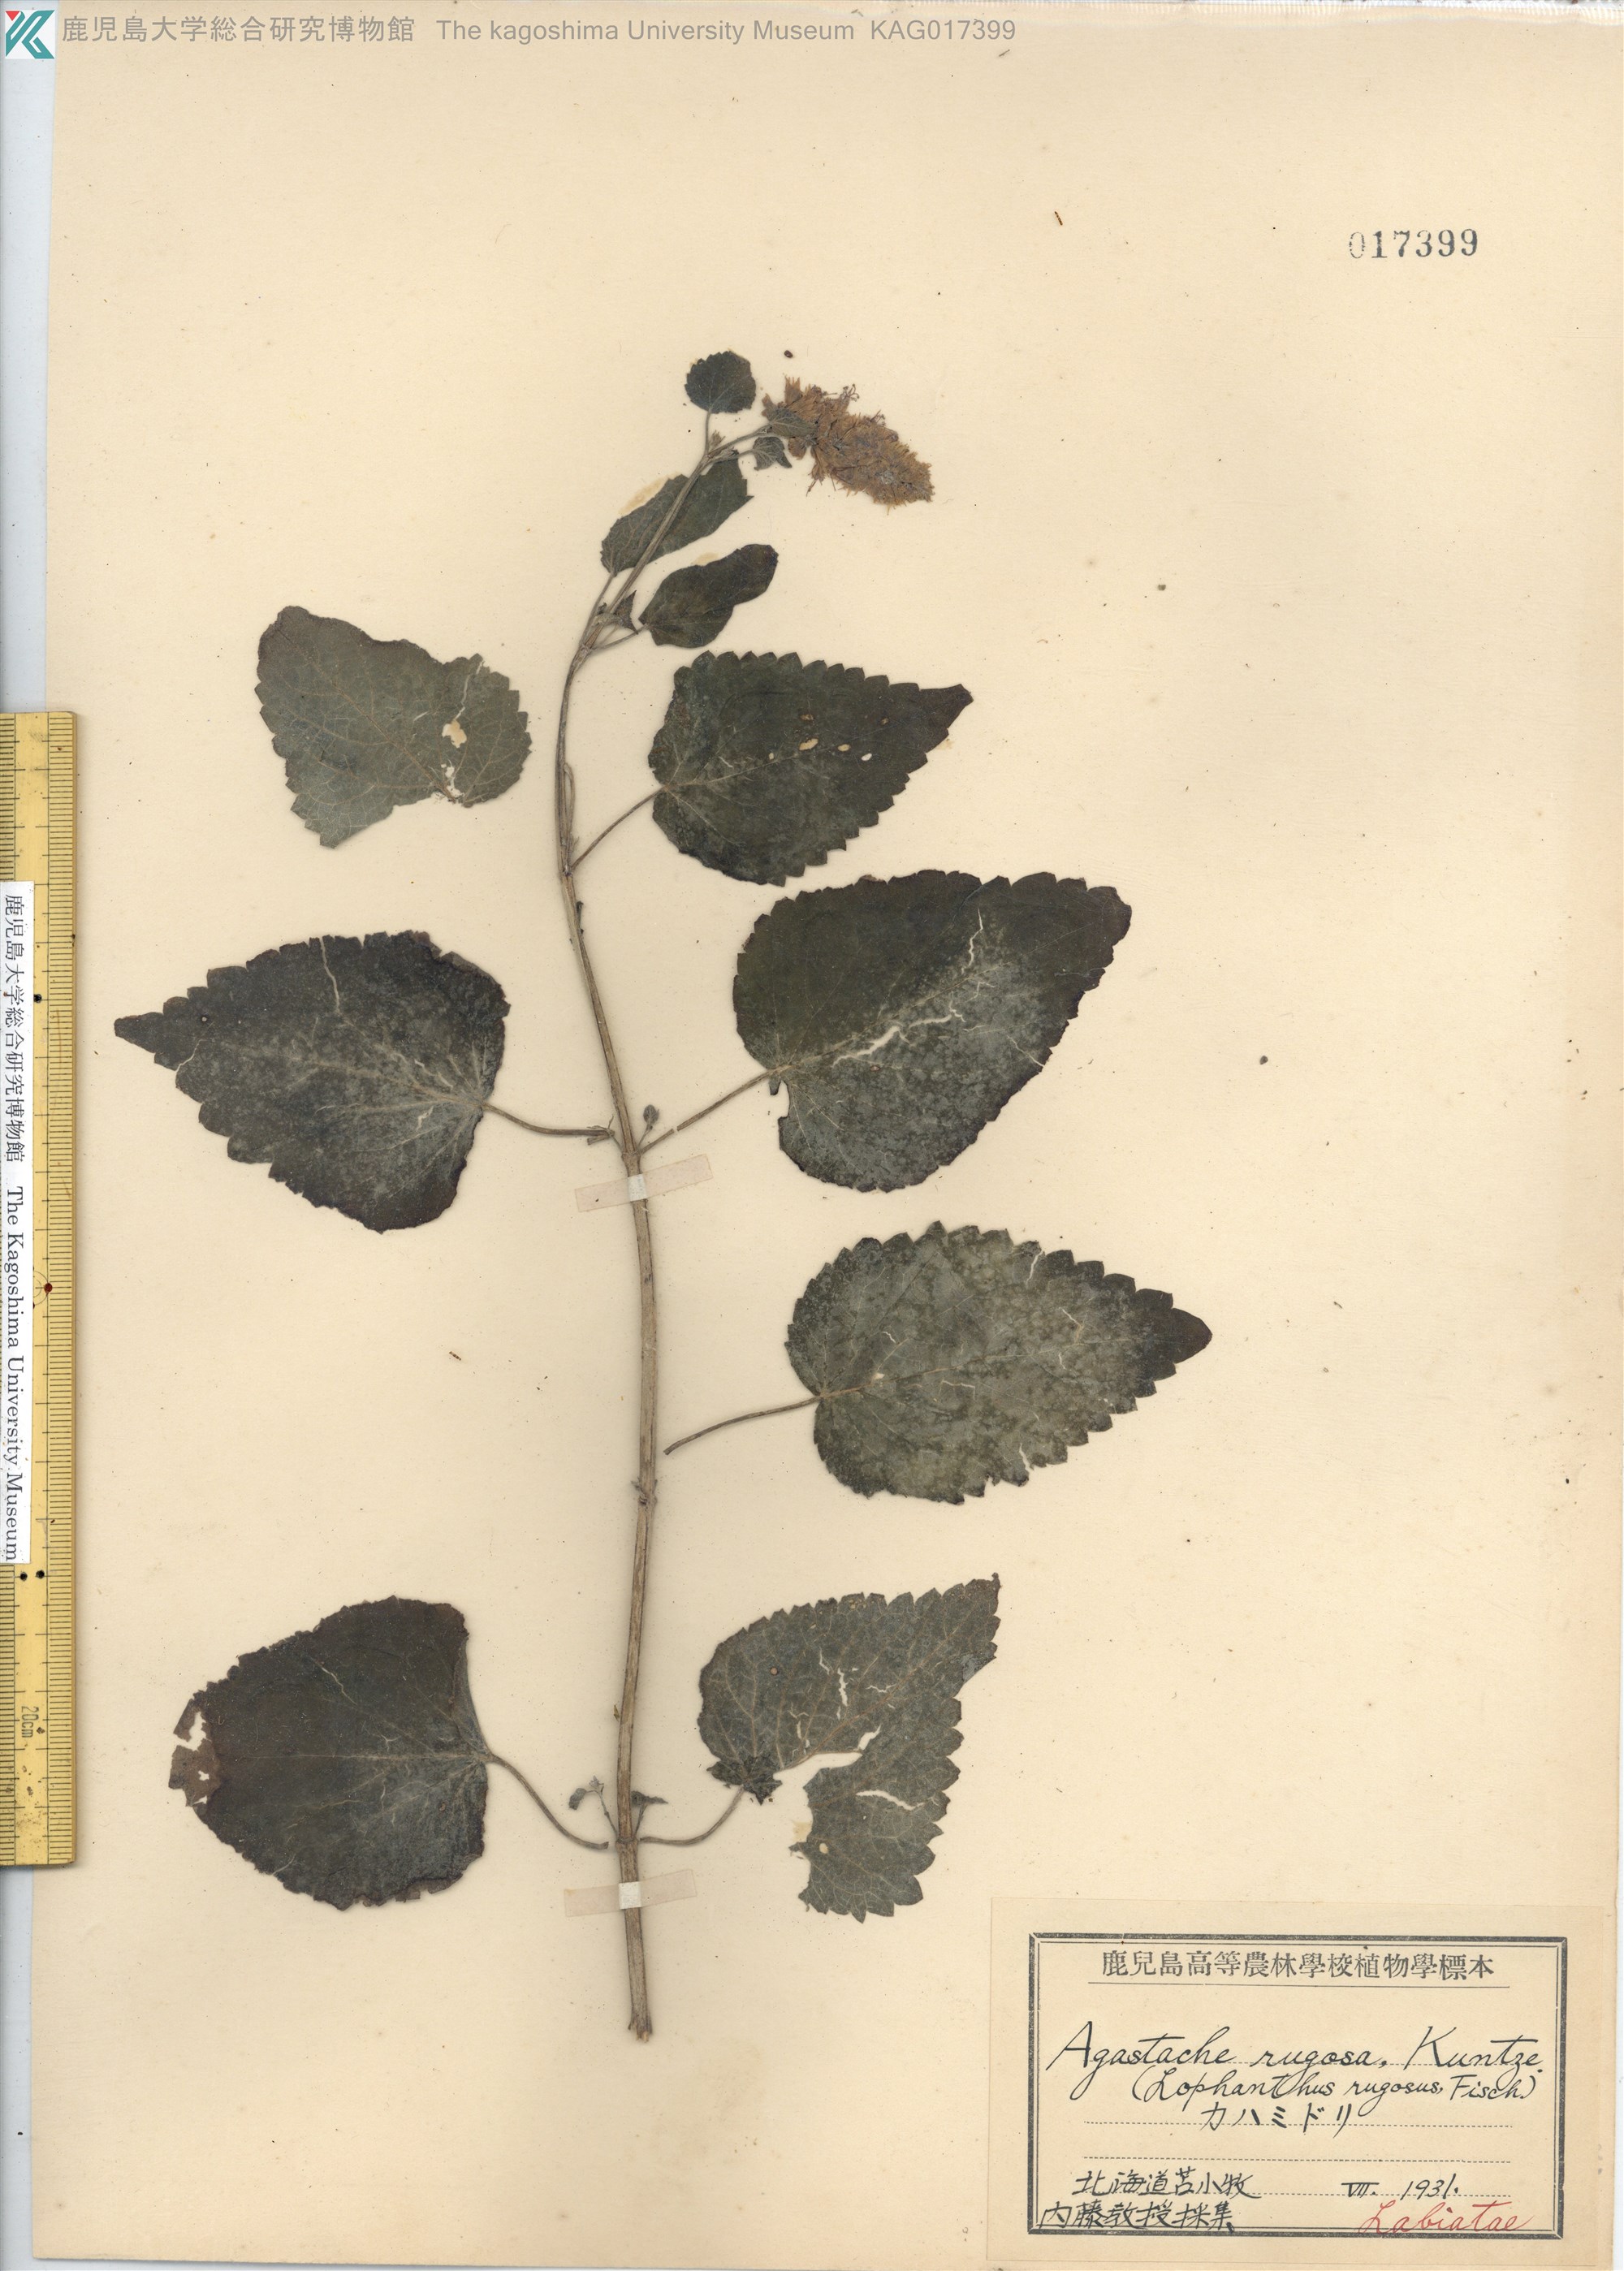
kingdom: Plantae
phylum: Tracheophyta
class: Magnoliopsida
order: Lamiales
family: Lamiaceae
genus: Agastache
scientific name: Agastache rugosa
